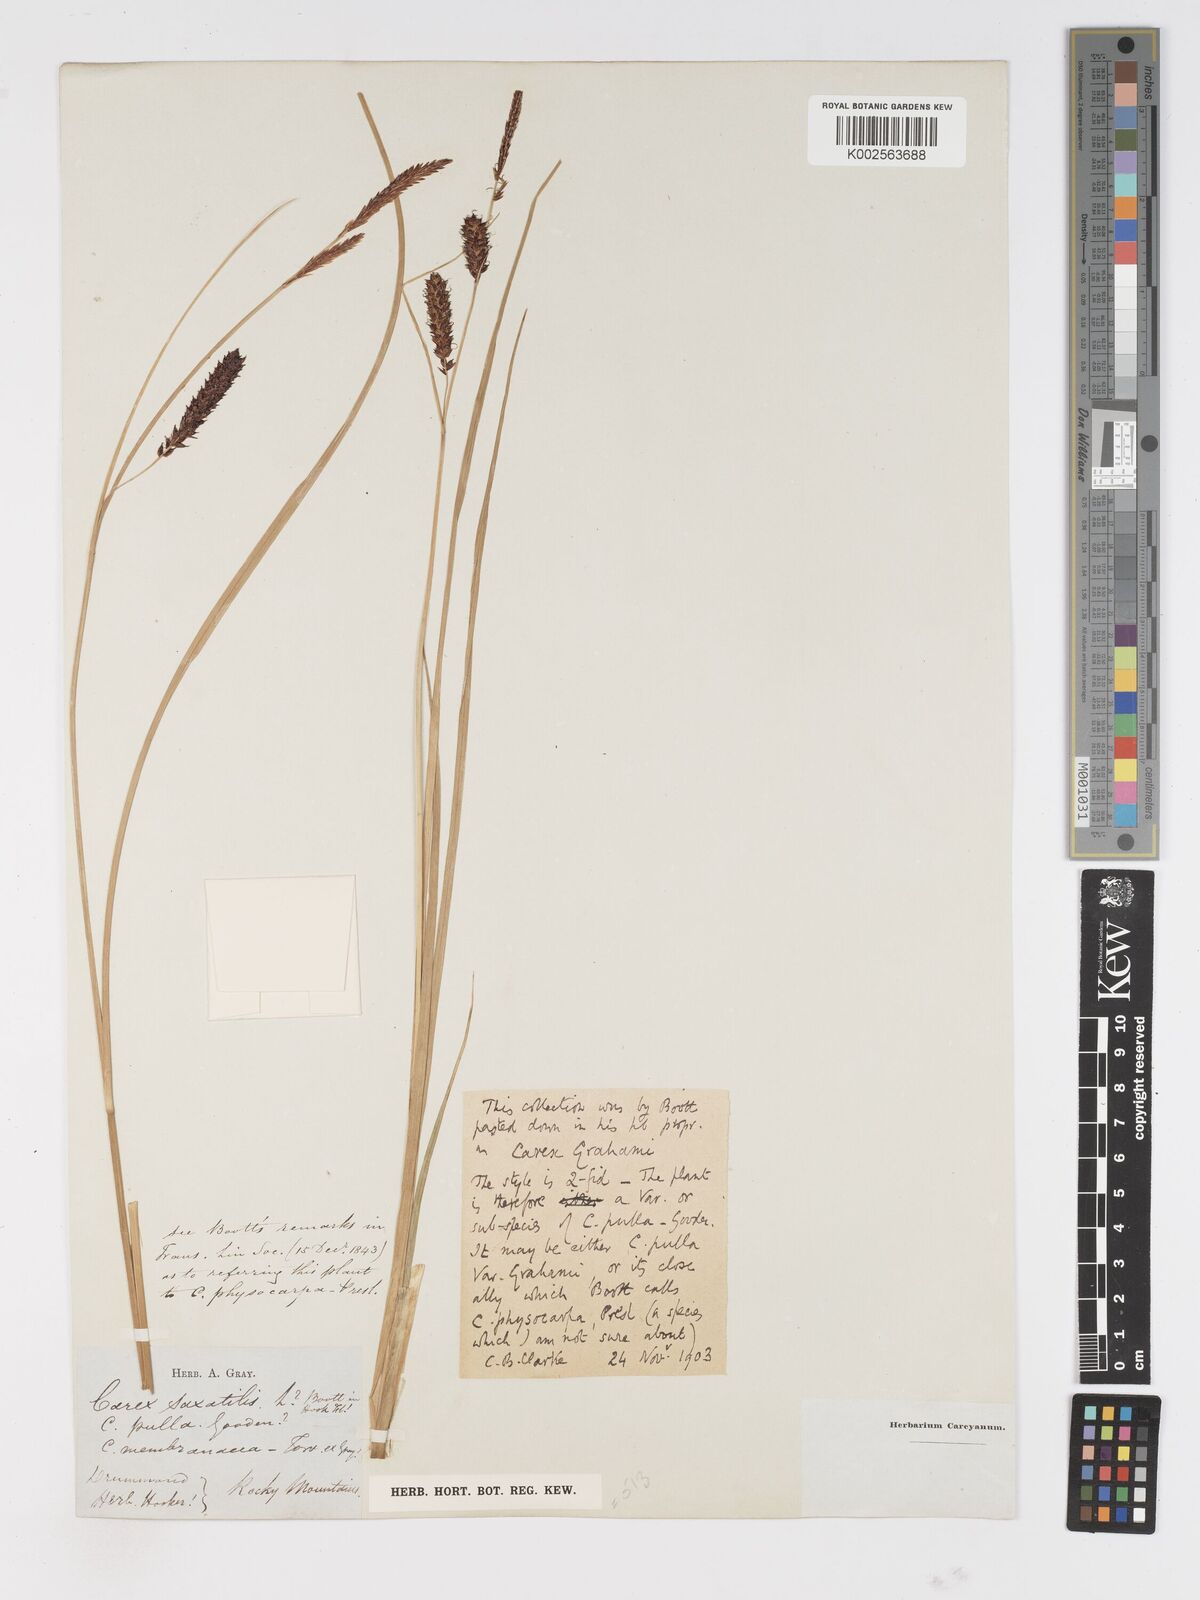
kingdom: Plantae
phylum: Tracheophyta
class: Liliopsida
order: Poales
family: Cyperaceae
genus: Carex
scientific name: Carex mainensis
